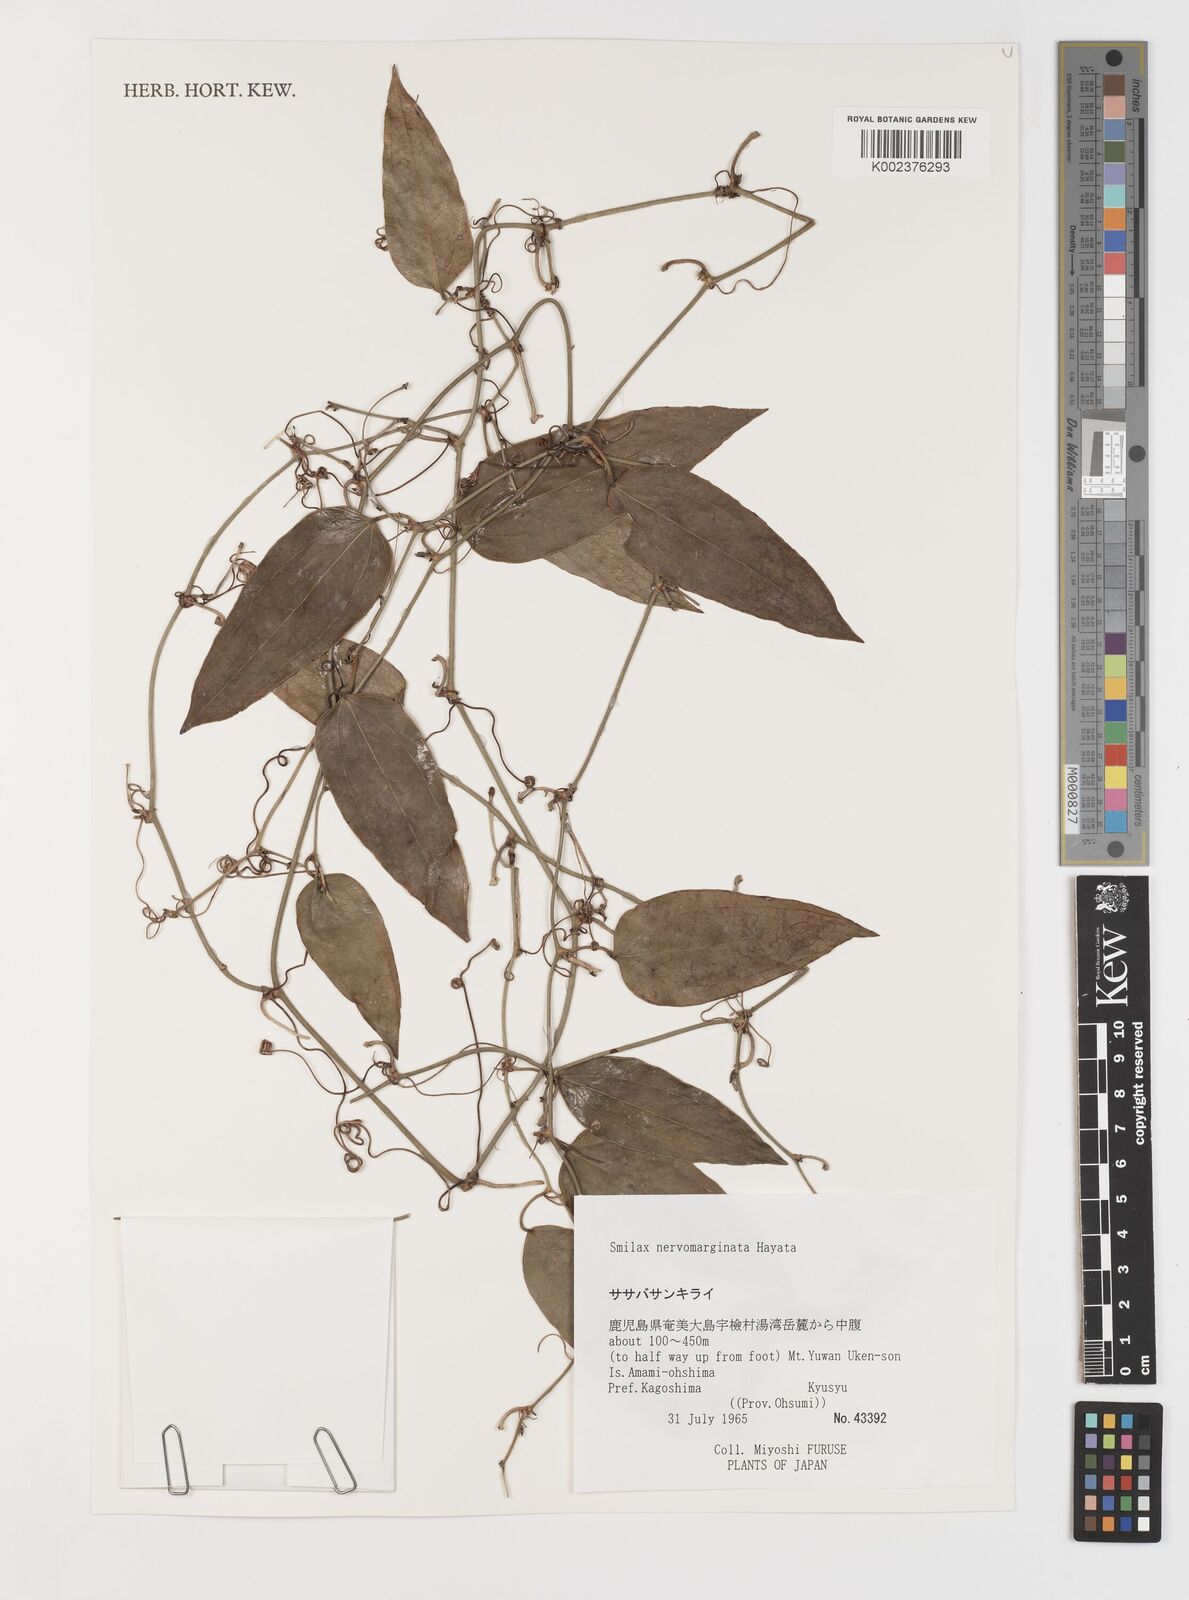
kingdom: Plantae
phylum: Tracheophyta
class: Liliopsida
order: Liliales
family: Smilacaceae
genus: Smilax
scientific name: Smilax nervomarginata
